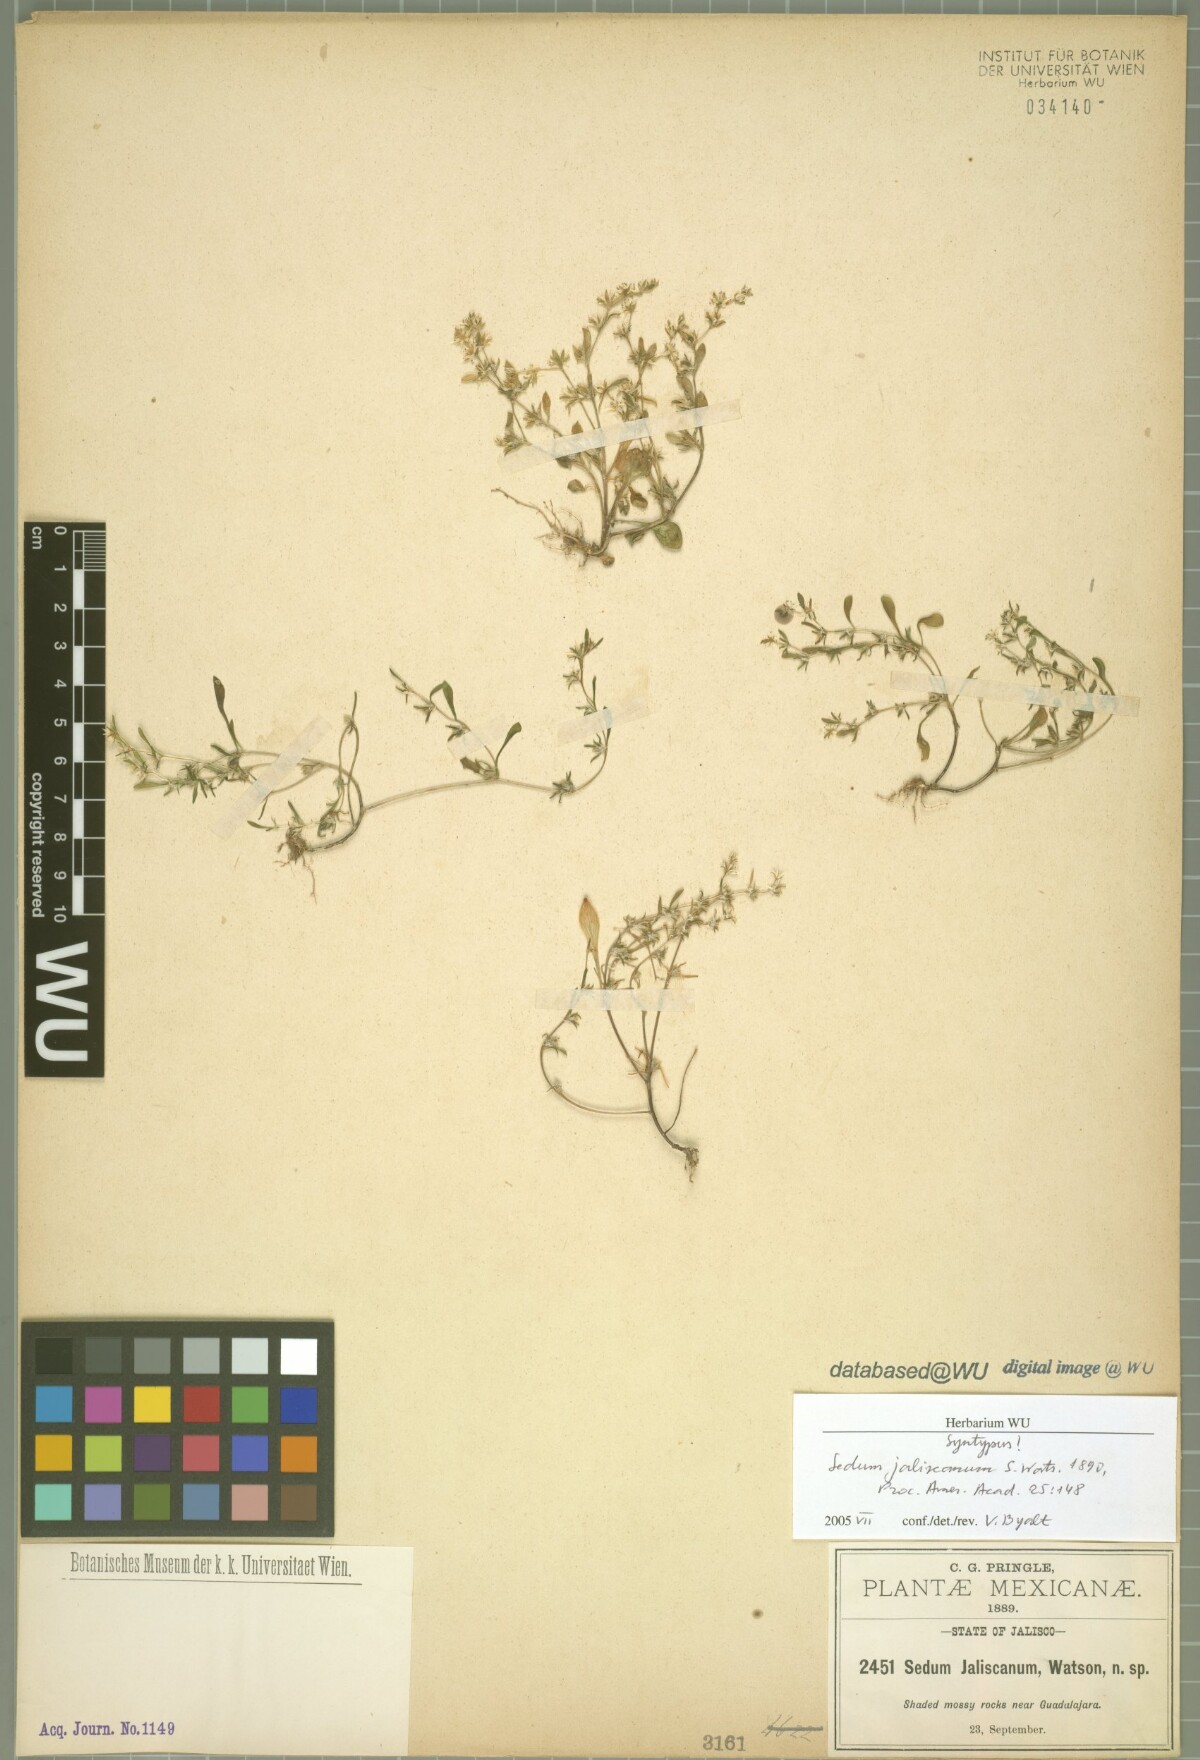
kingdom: Plantae
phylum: Tracheophyta
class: Magnoliopsida
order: Saxifragales
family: Crassulaceae
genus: Sedum
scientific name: Sedum jaliscanum
